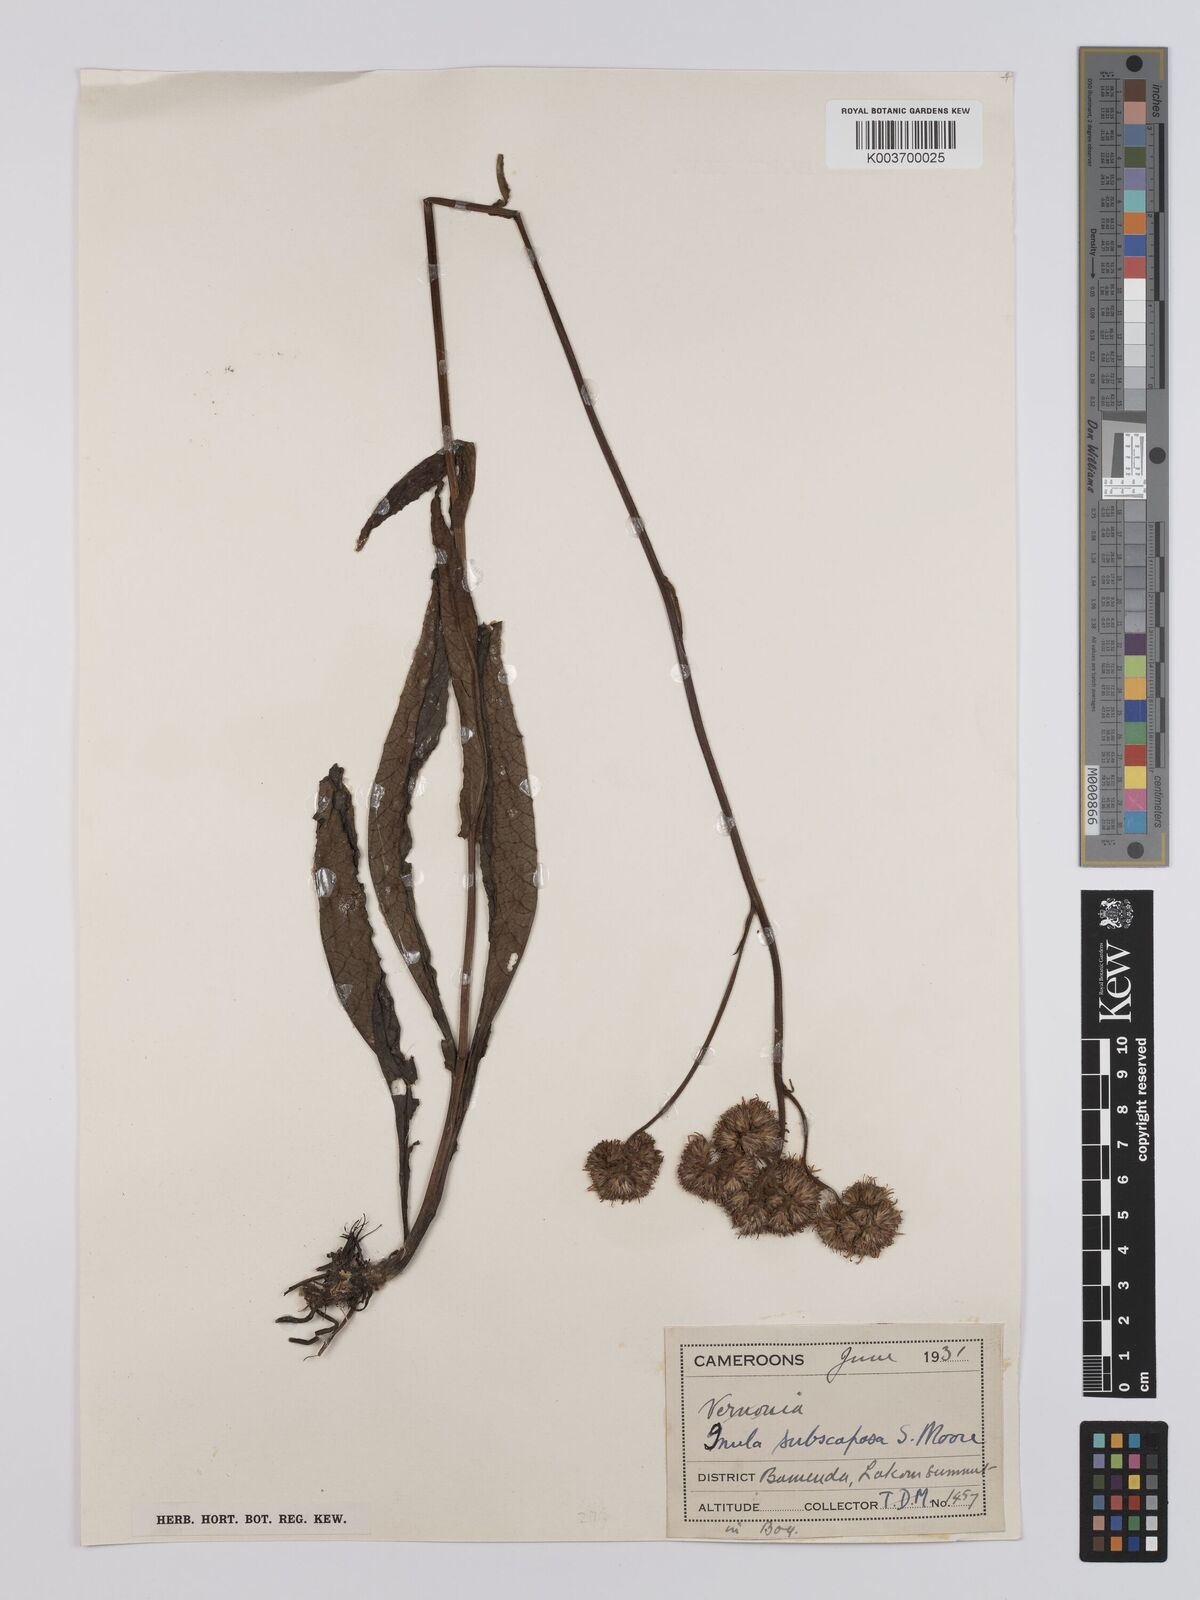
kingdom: Plantae
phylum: Tracheophyta
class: Magnoliopsida
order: Asterales
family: Asteraceae
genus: Monactinocephalus
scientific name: Monactinocephalus paniculatus
